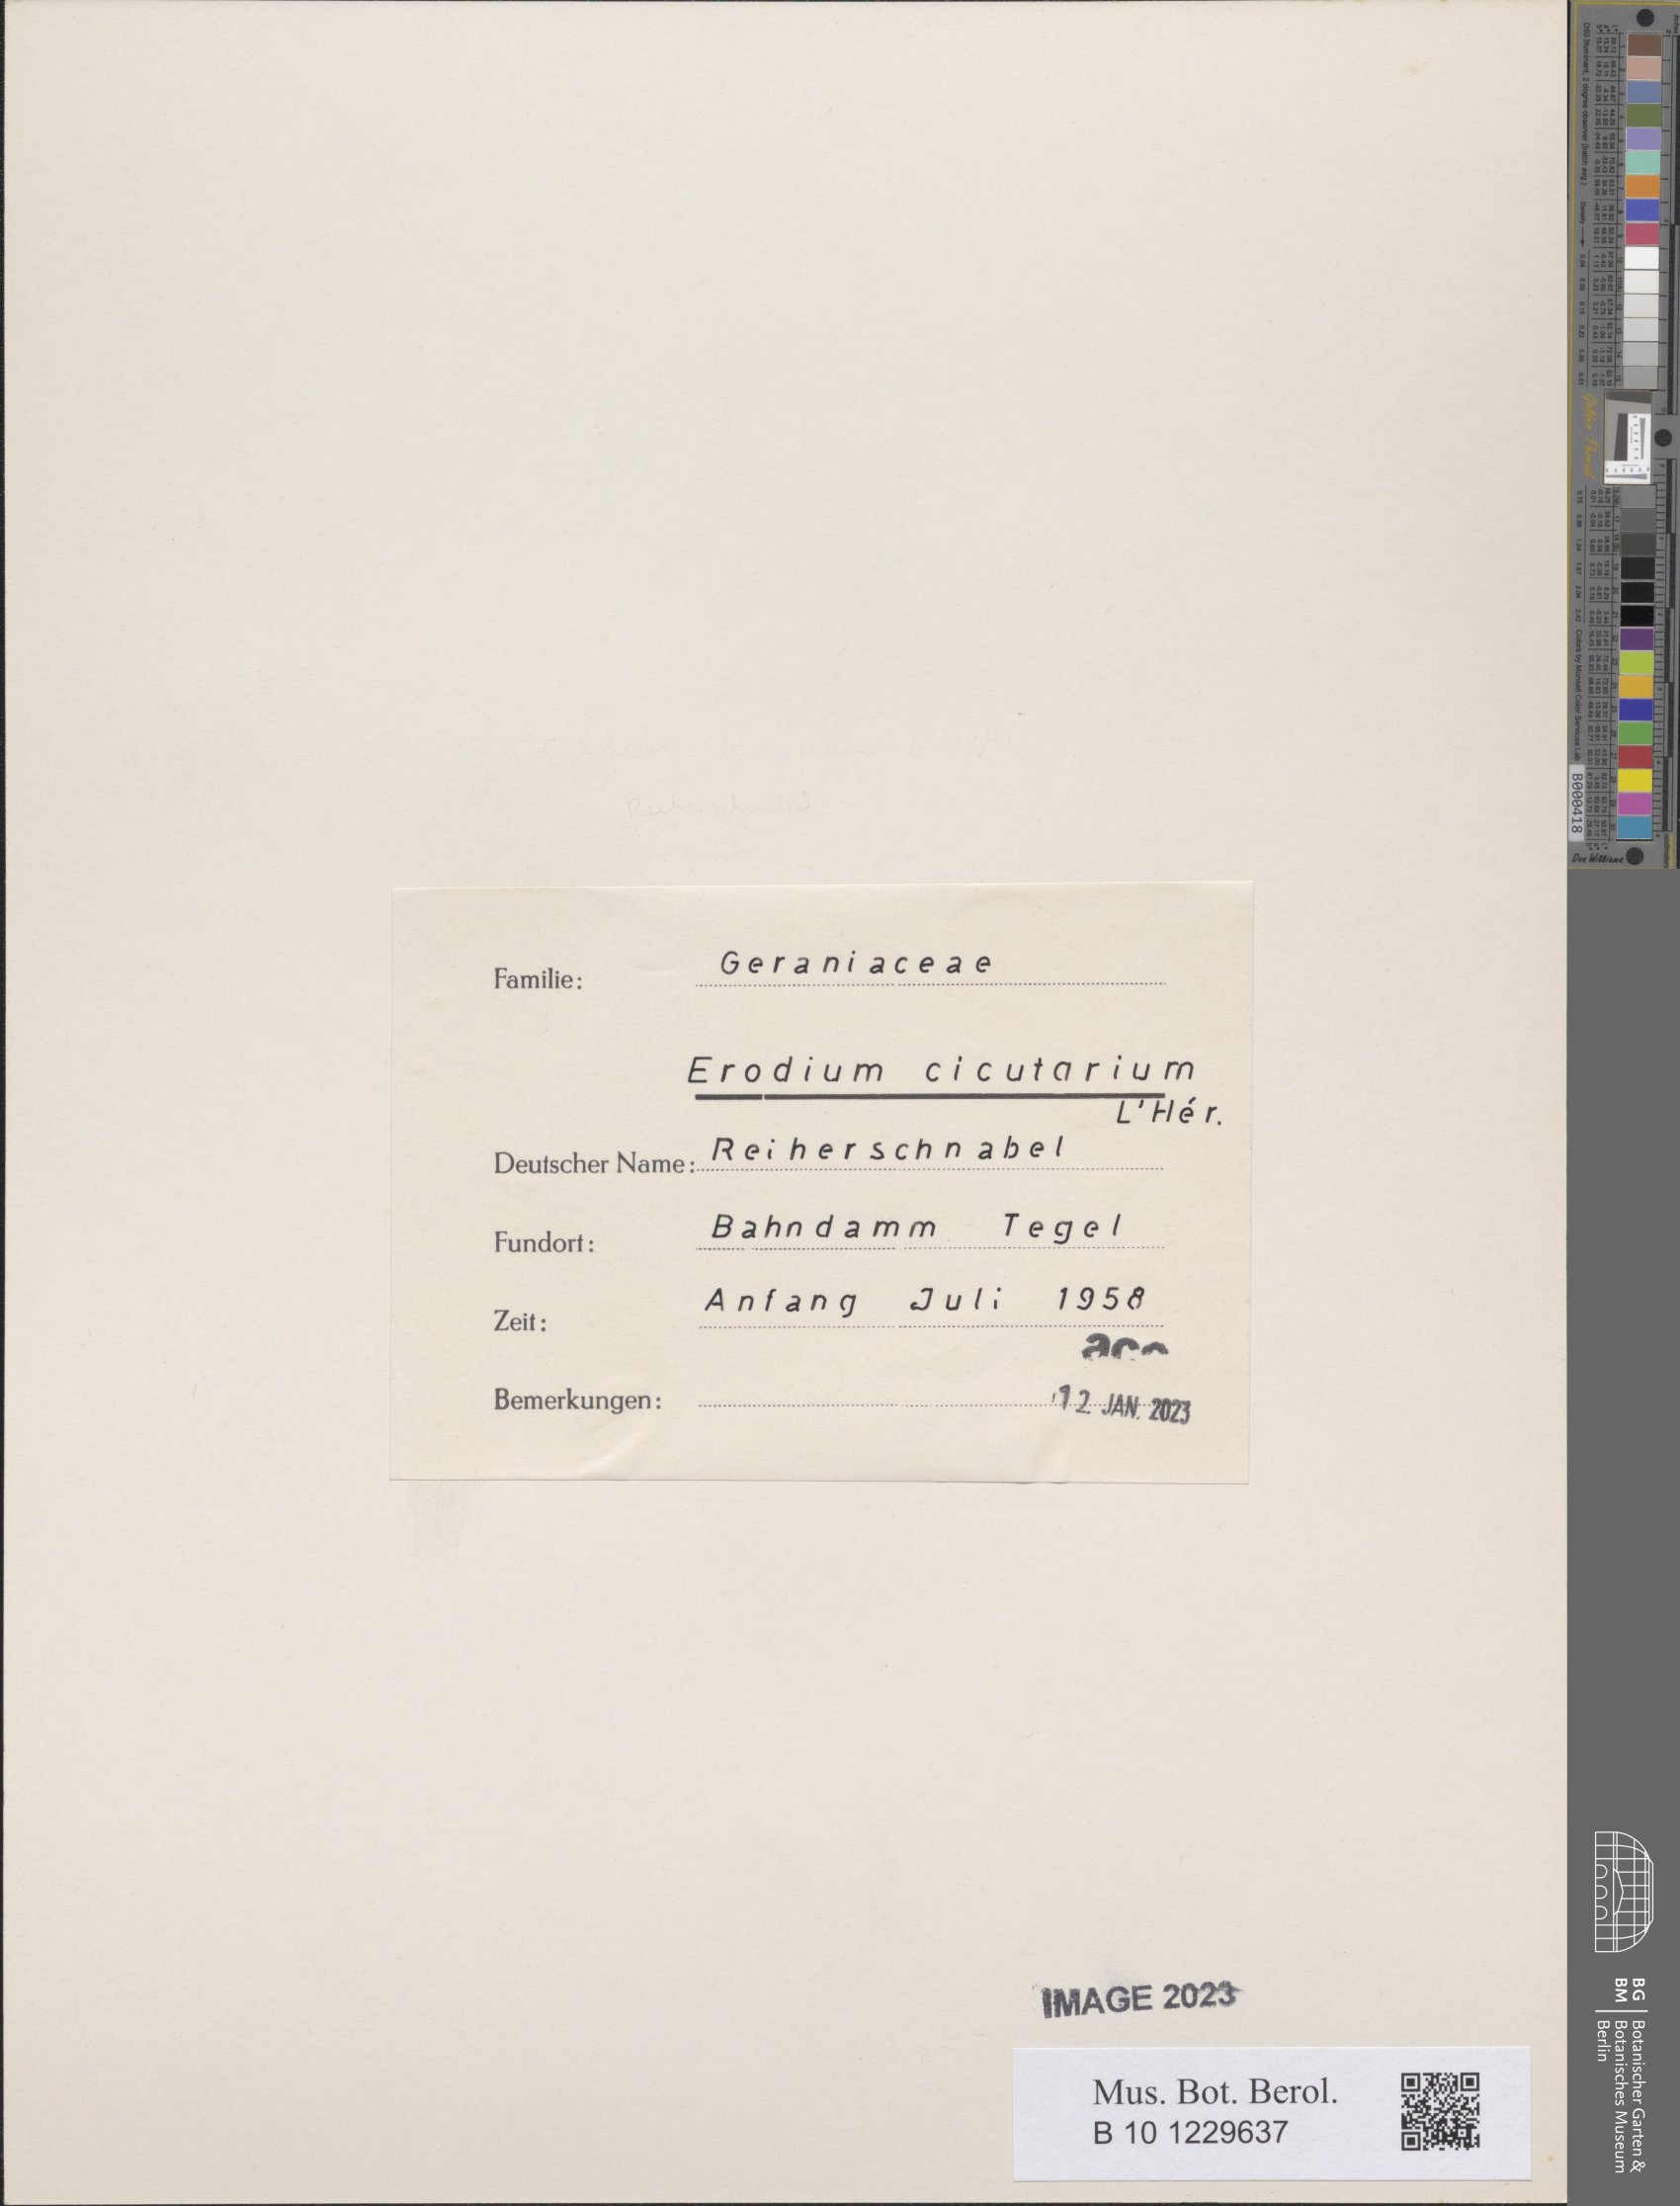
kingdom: Plantae
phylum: Tracheophyta
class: Magnoliopsida
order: Geraniales
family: Geraniaceae
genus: Erodium
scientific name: Erodium cicutarium
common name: Common stork's-bill
